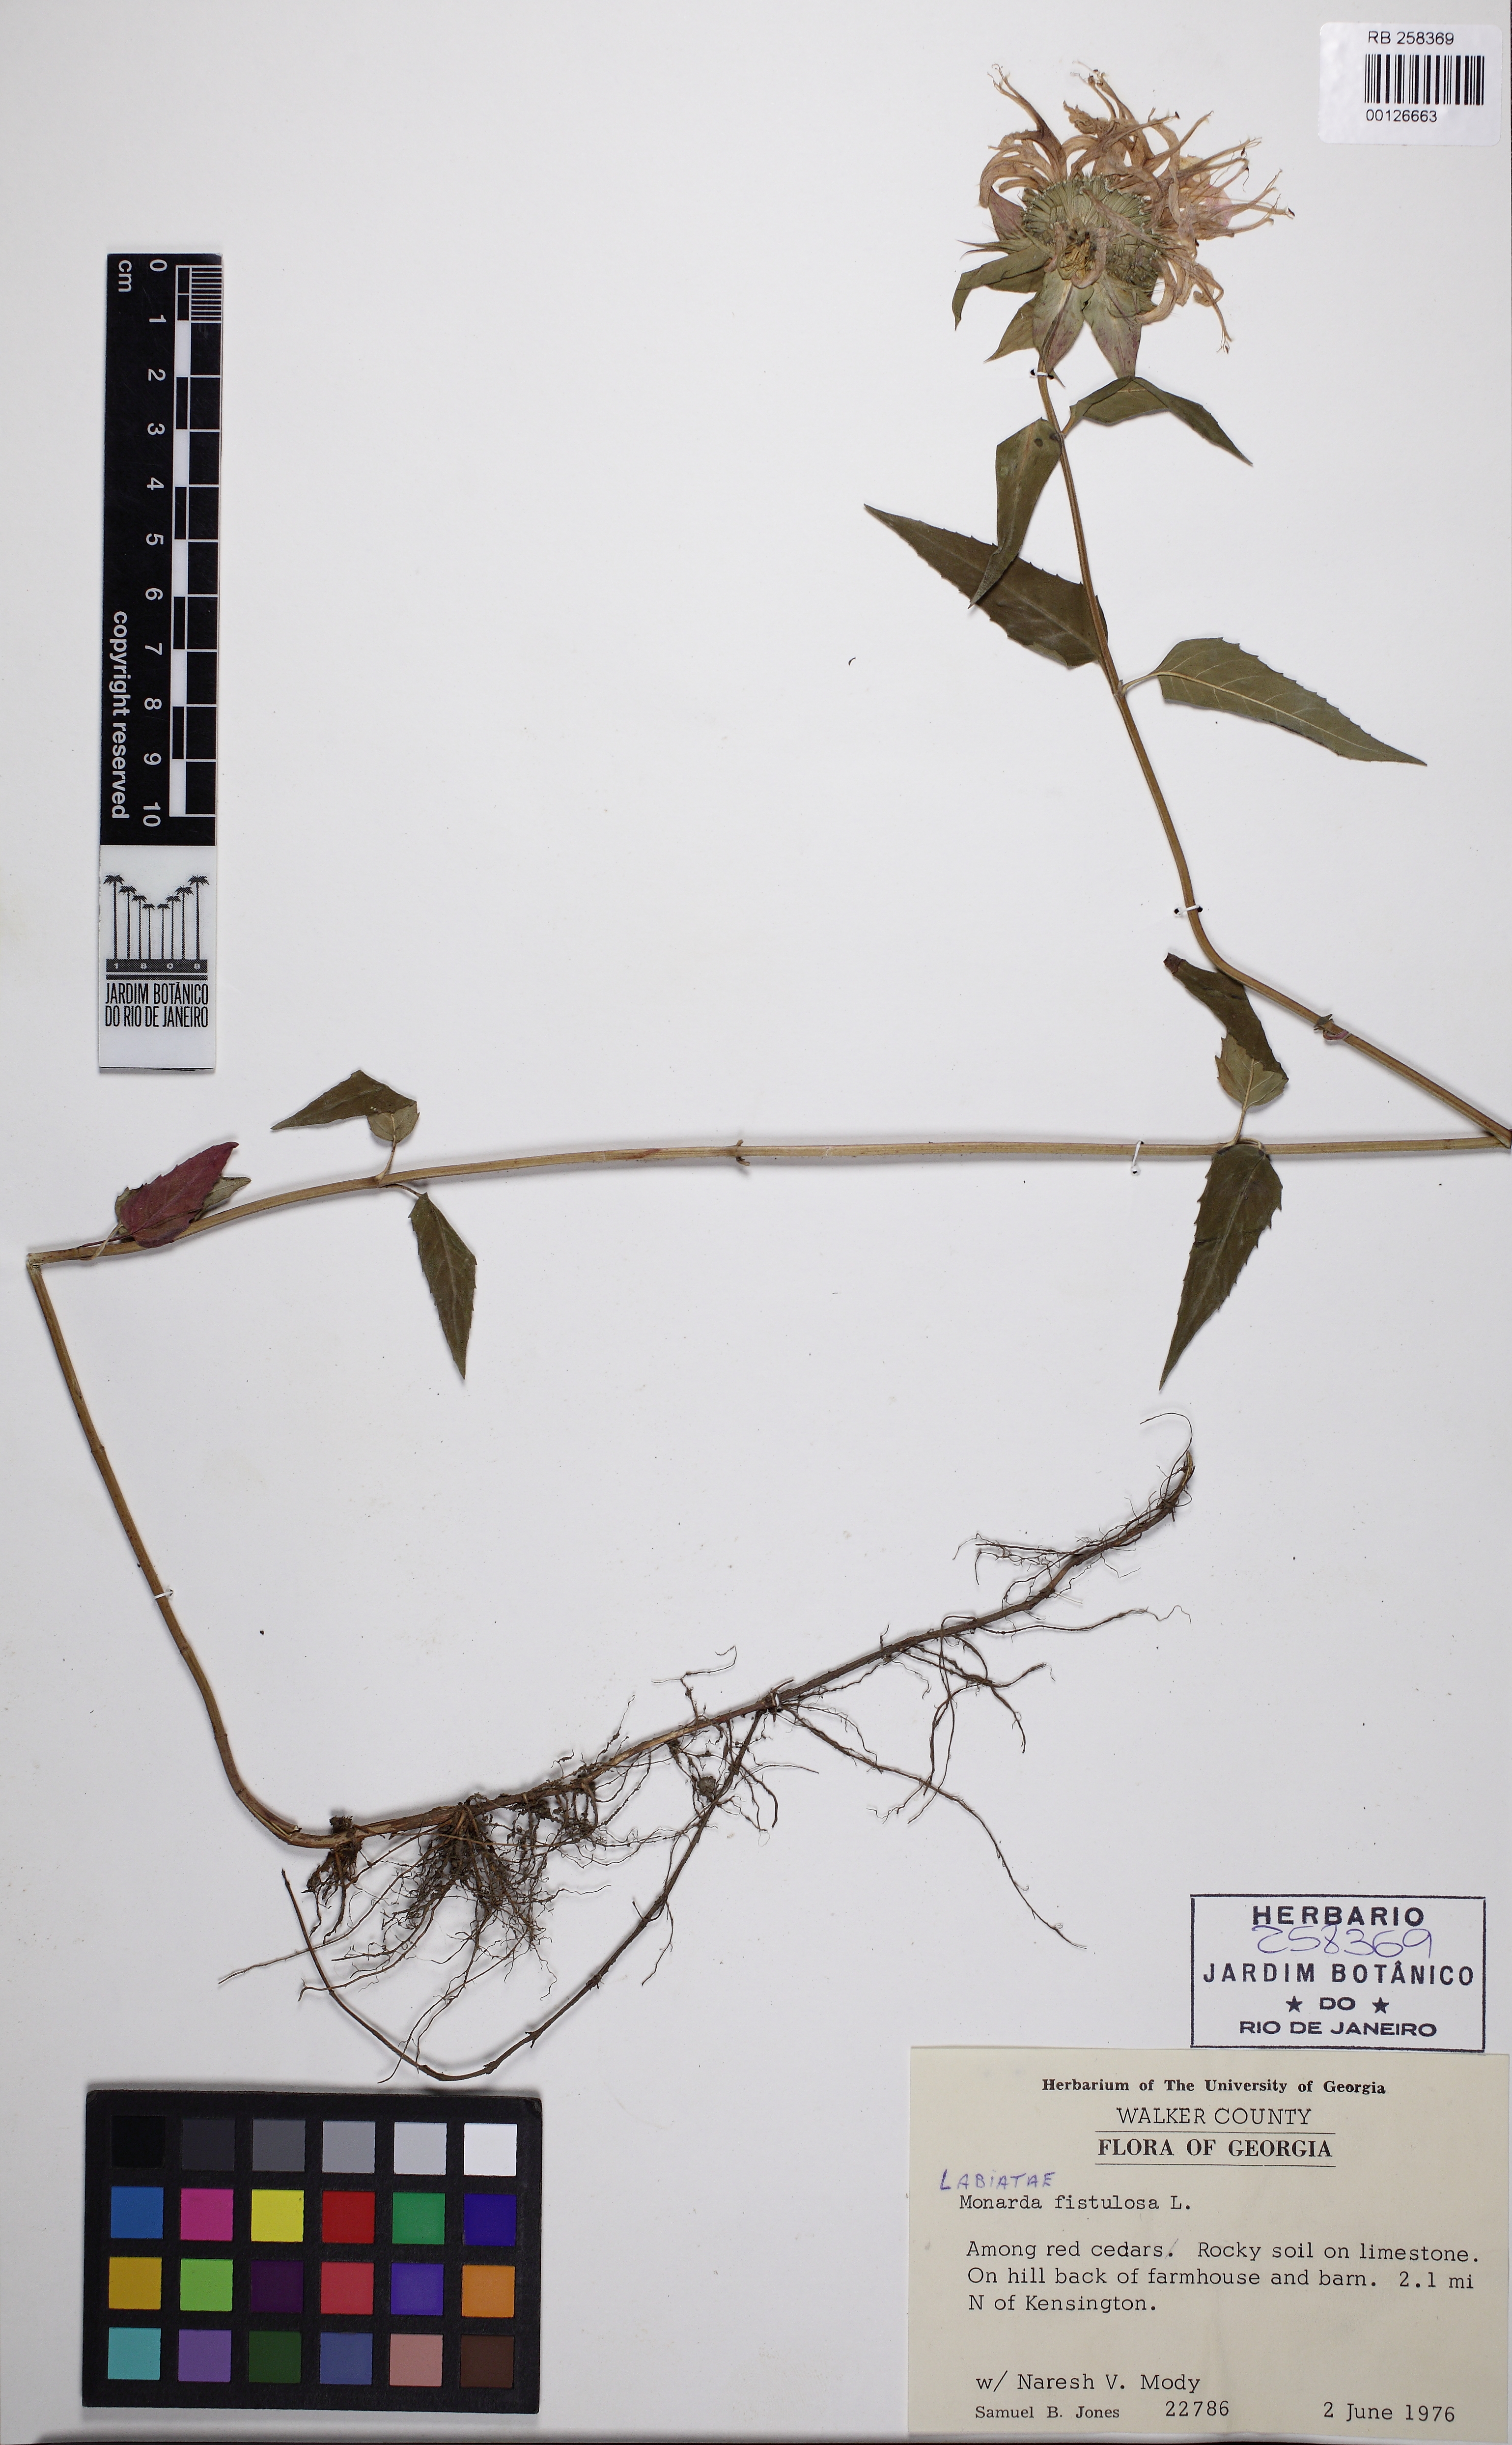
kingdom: Plantae
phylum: Tracheophyta
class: Magnoliopsida
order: Lamiales
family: Lamiaceae
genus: Monarda
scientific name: Monarda fistulosa
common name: Purple beebalm
